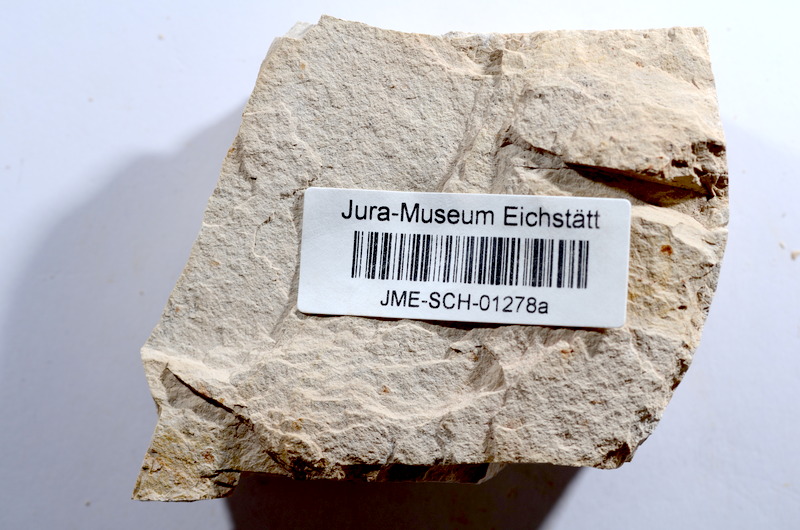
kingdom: Animalia
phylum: Chordata
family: Ascalaboidae
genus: Tharsis
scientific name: Tharsis dubius
